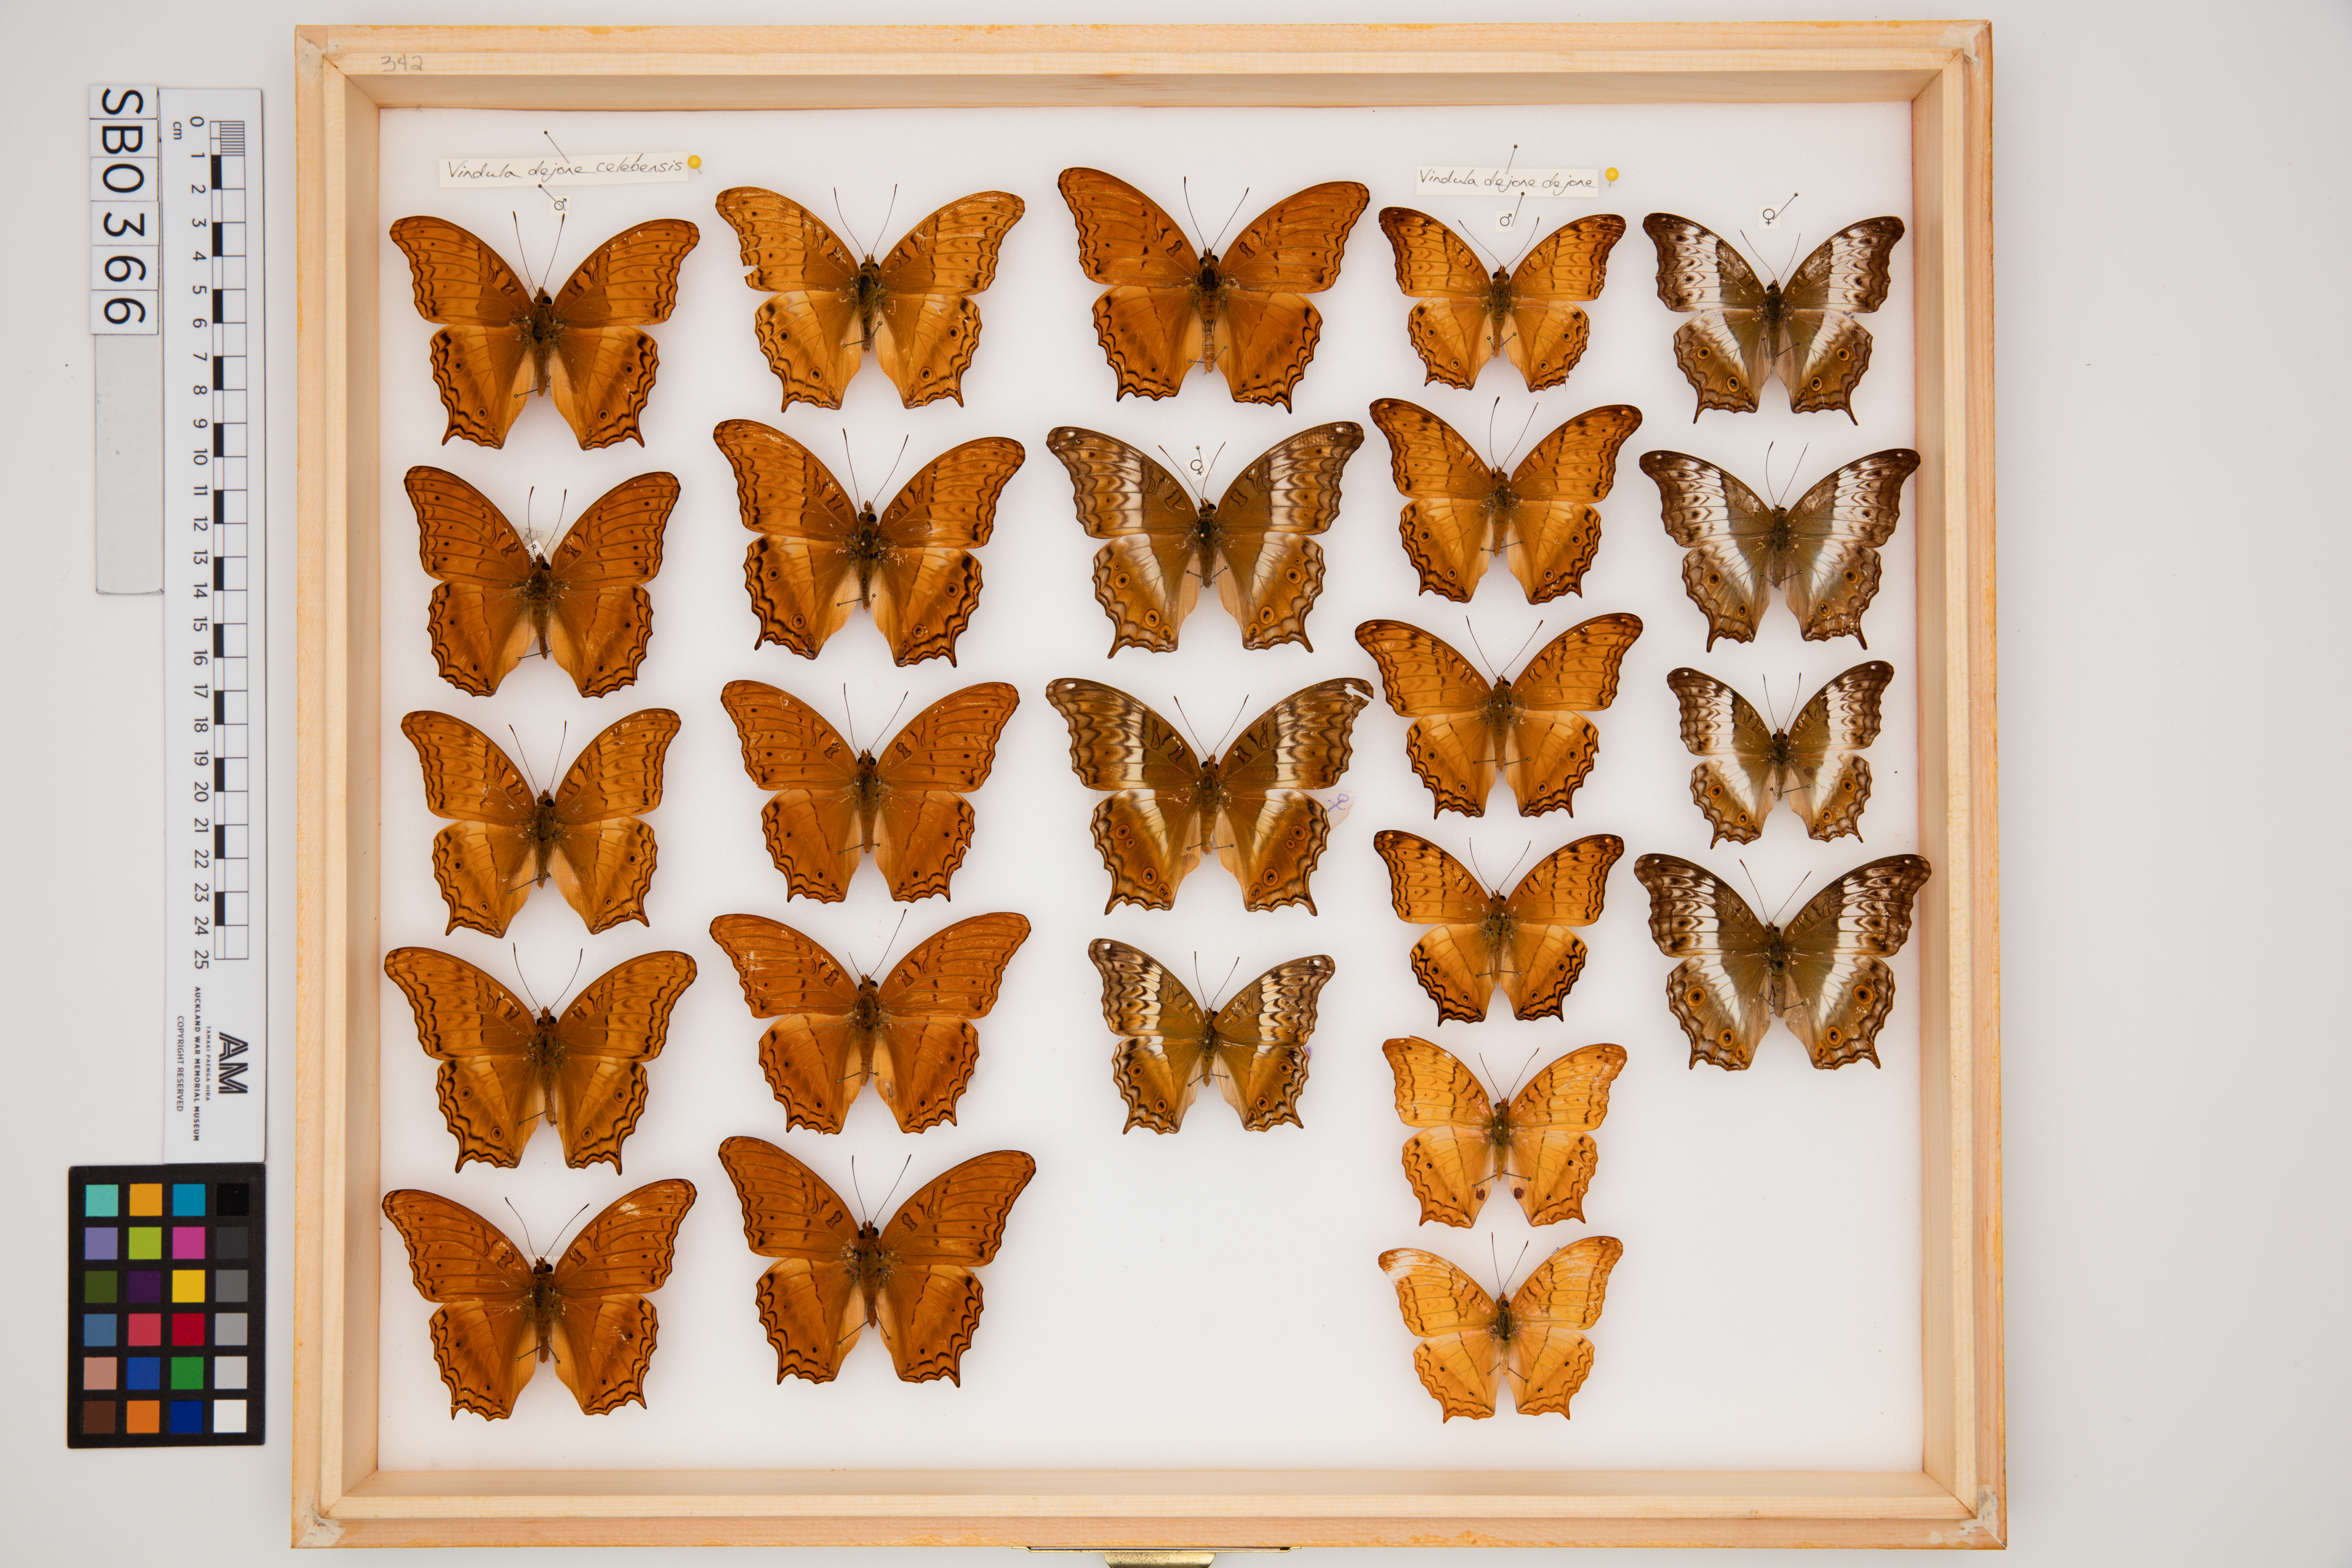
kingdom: Animalia
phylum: Arthropoda
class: Insecta
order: Lepidoptera
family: Nymphalidae
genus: Vindula
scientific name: Vindula deione
